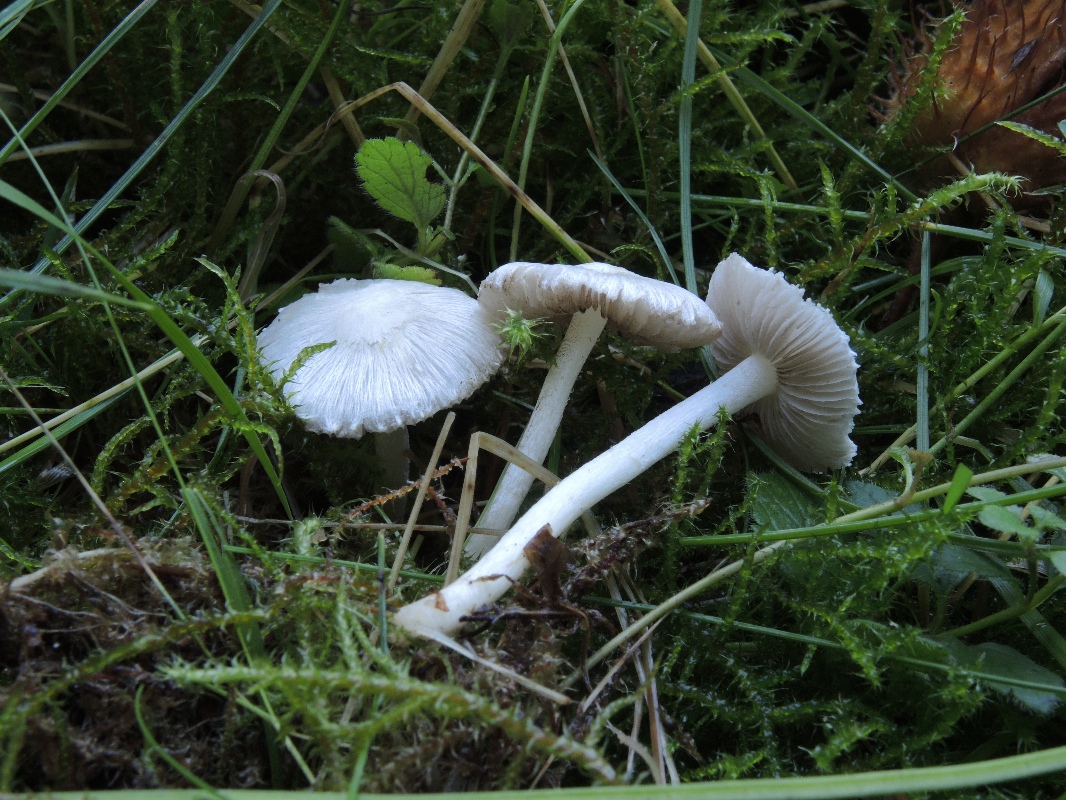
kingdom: Fungi
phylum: Basidiomycota
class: Agaricomycetes
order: Agaricales
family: Inocybaceae
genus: Inocybe
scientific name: Inocybe
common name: almindelig trævlhat
